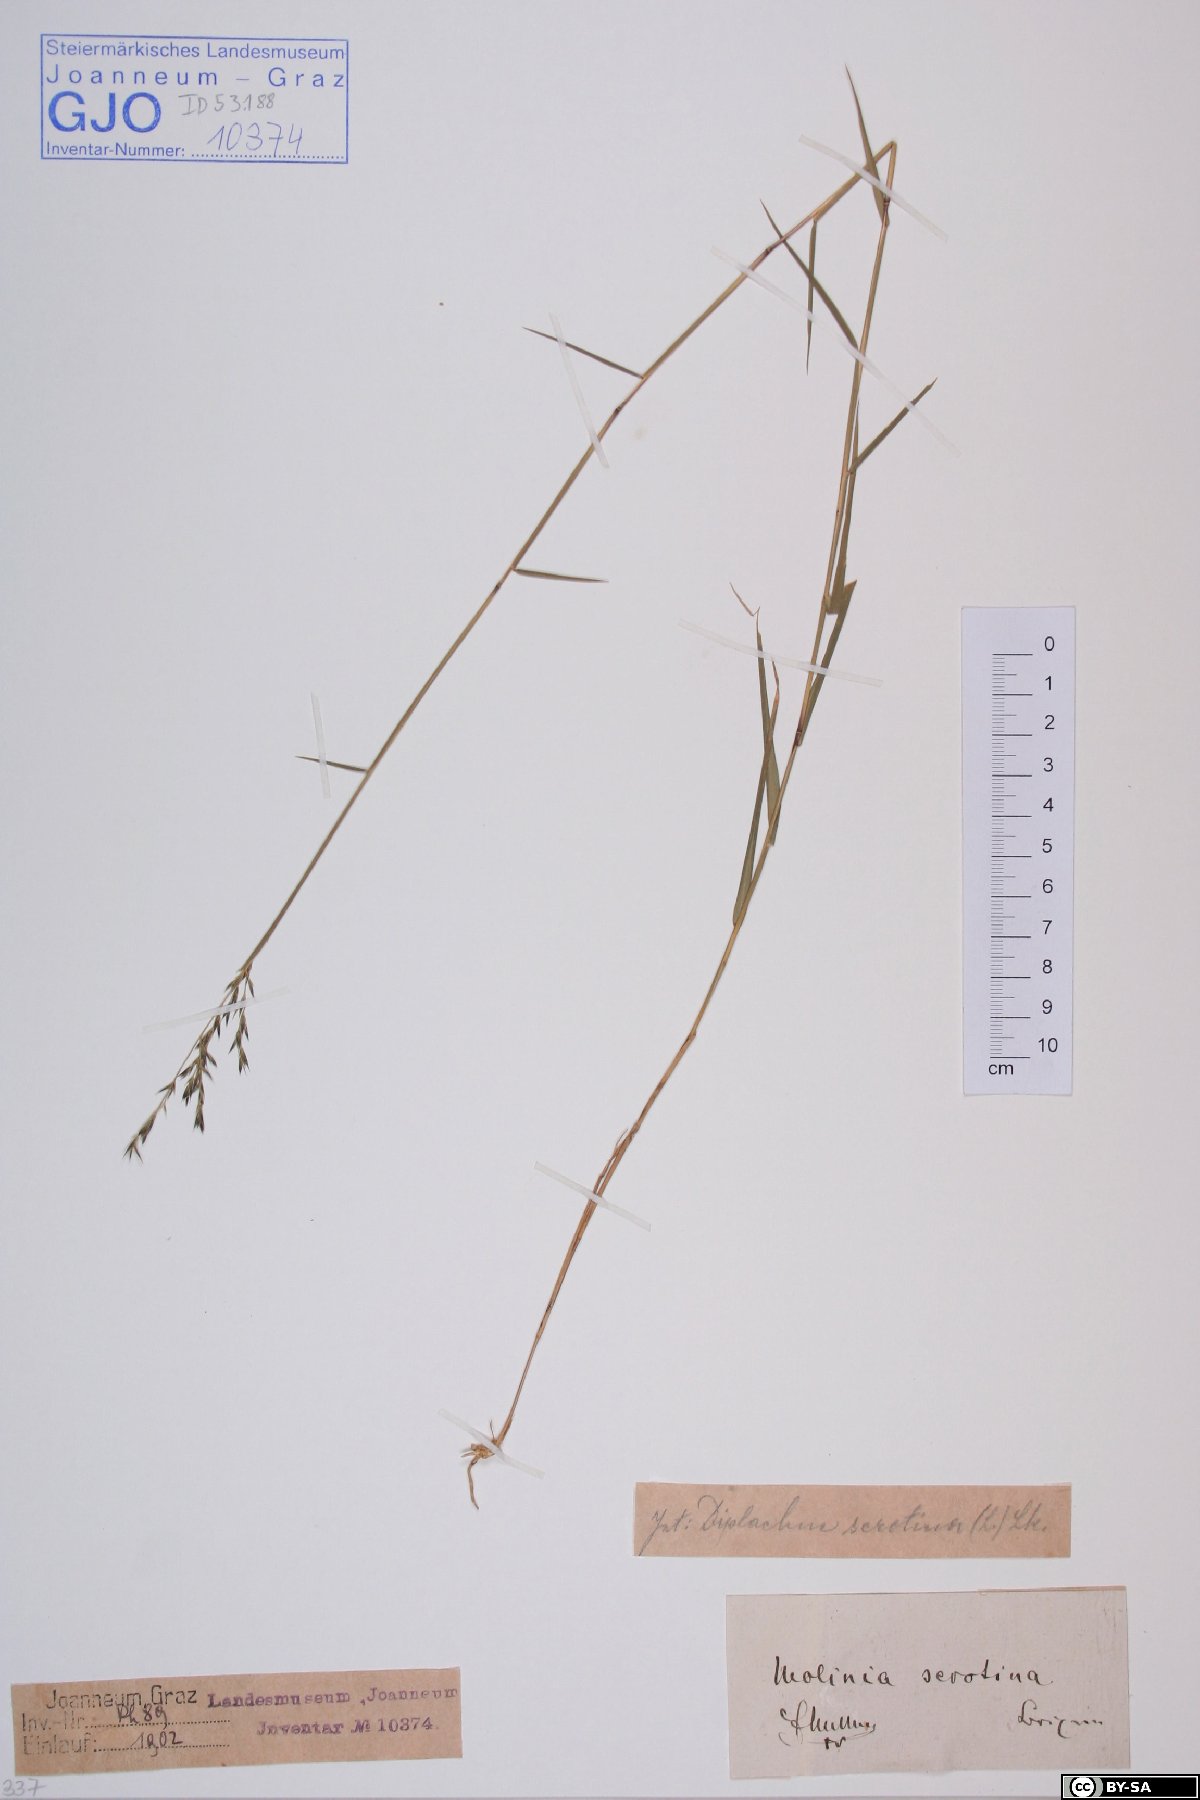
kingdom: Plantae
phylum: Tracheophyta
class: Liliopsida
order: Poales
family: Poaceae
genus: Cleistogenes
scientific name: Cleistogenes serotina
